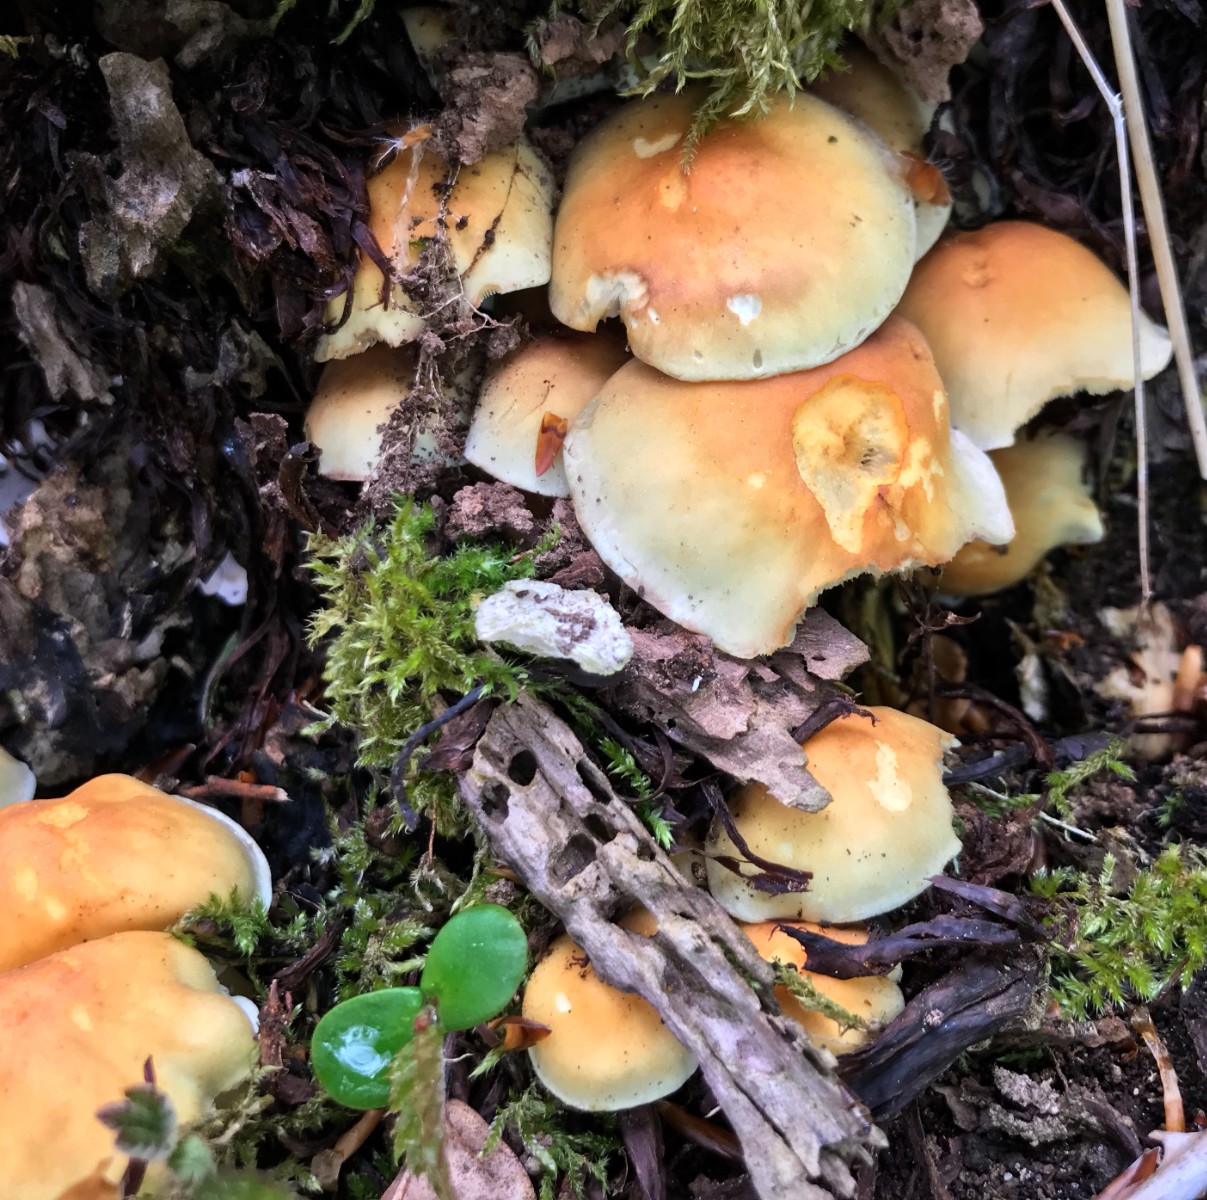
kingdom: Fungi
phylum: Basidiomycota
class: Agaricomycetes
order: Agaricales
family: Strophariaceae
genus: Hypholoma
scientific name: Hypholoma fasciculare
